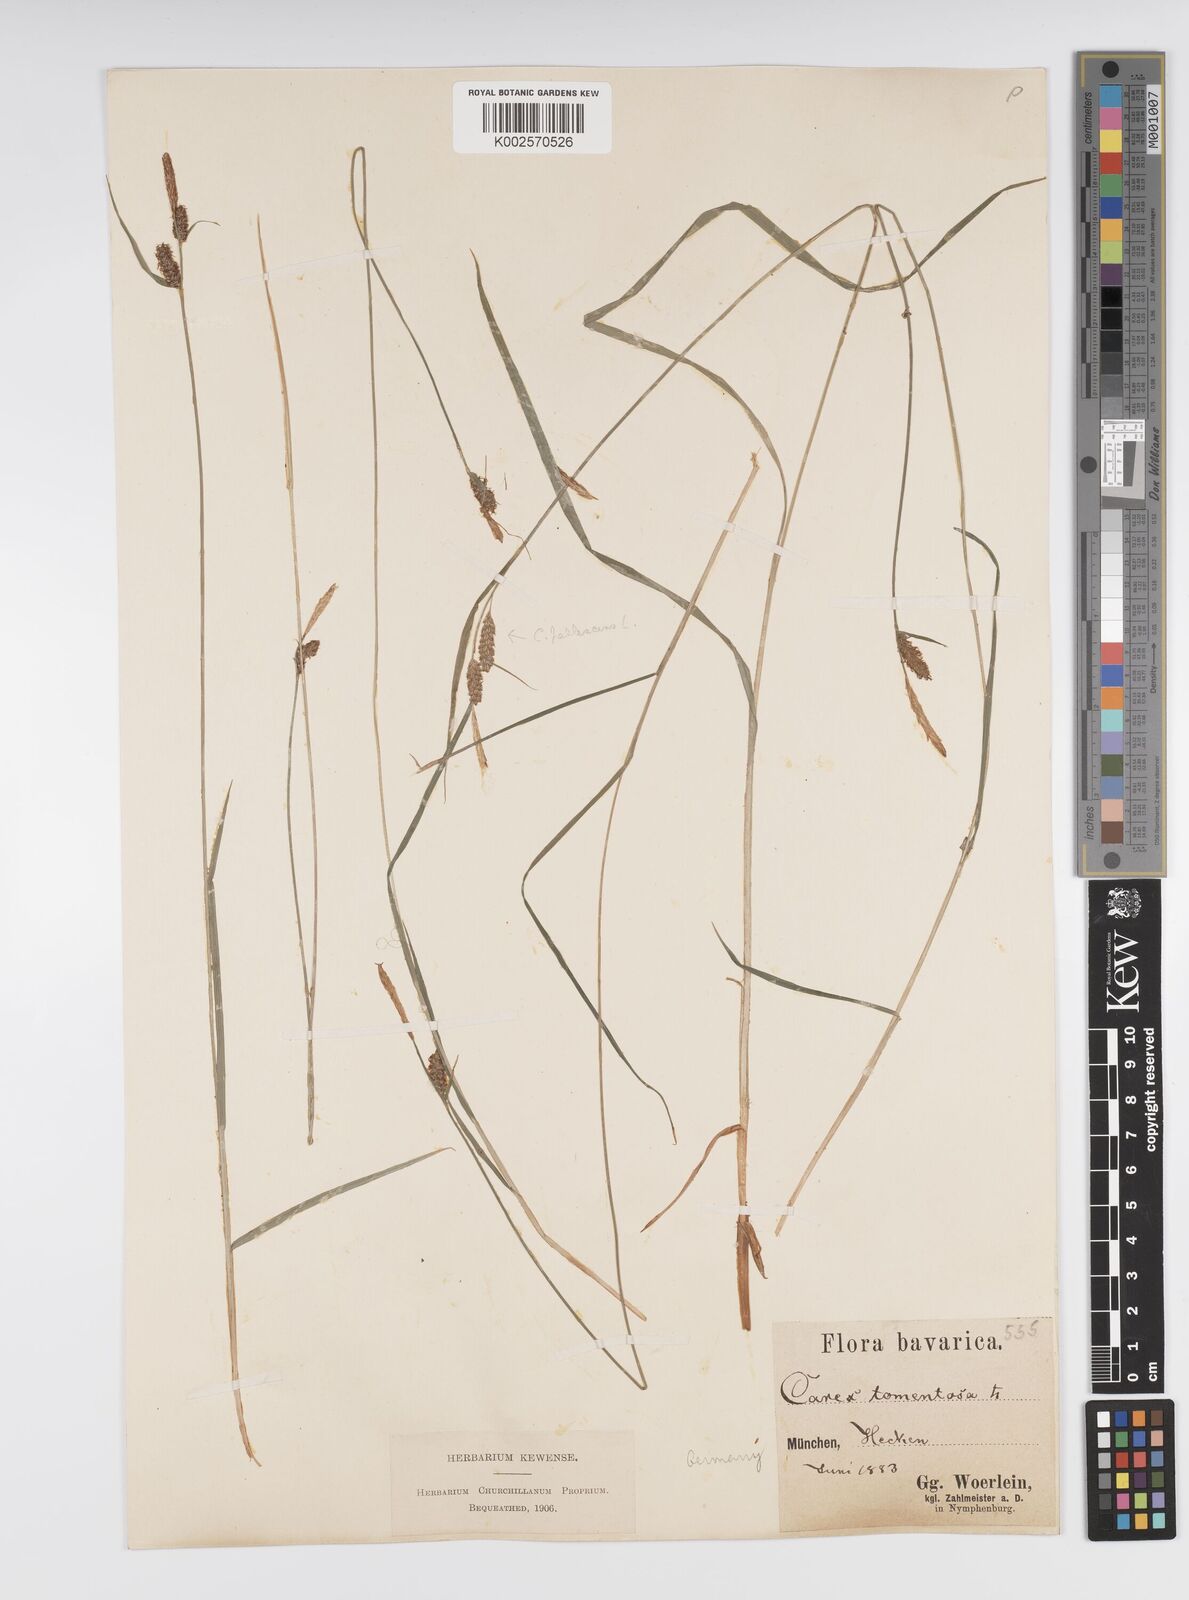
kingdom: Plantae
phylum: Tracheophyta
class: Liliopsida
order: Poales
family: Cyperaceae
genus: Carex
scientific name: Carex montana
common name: Soft-leaved sedge
